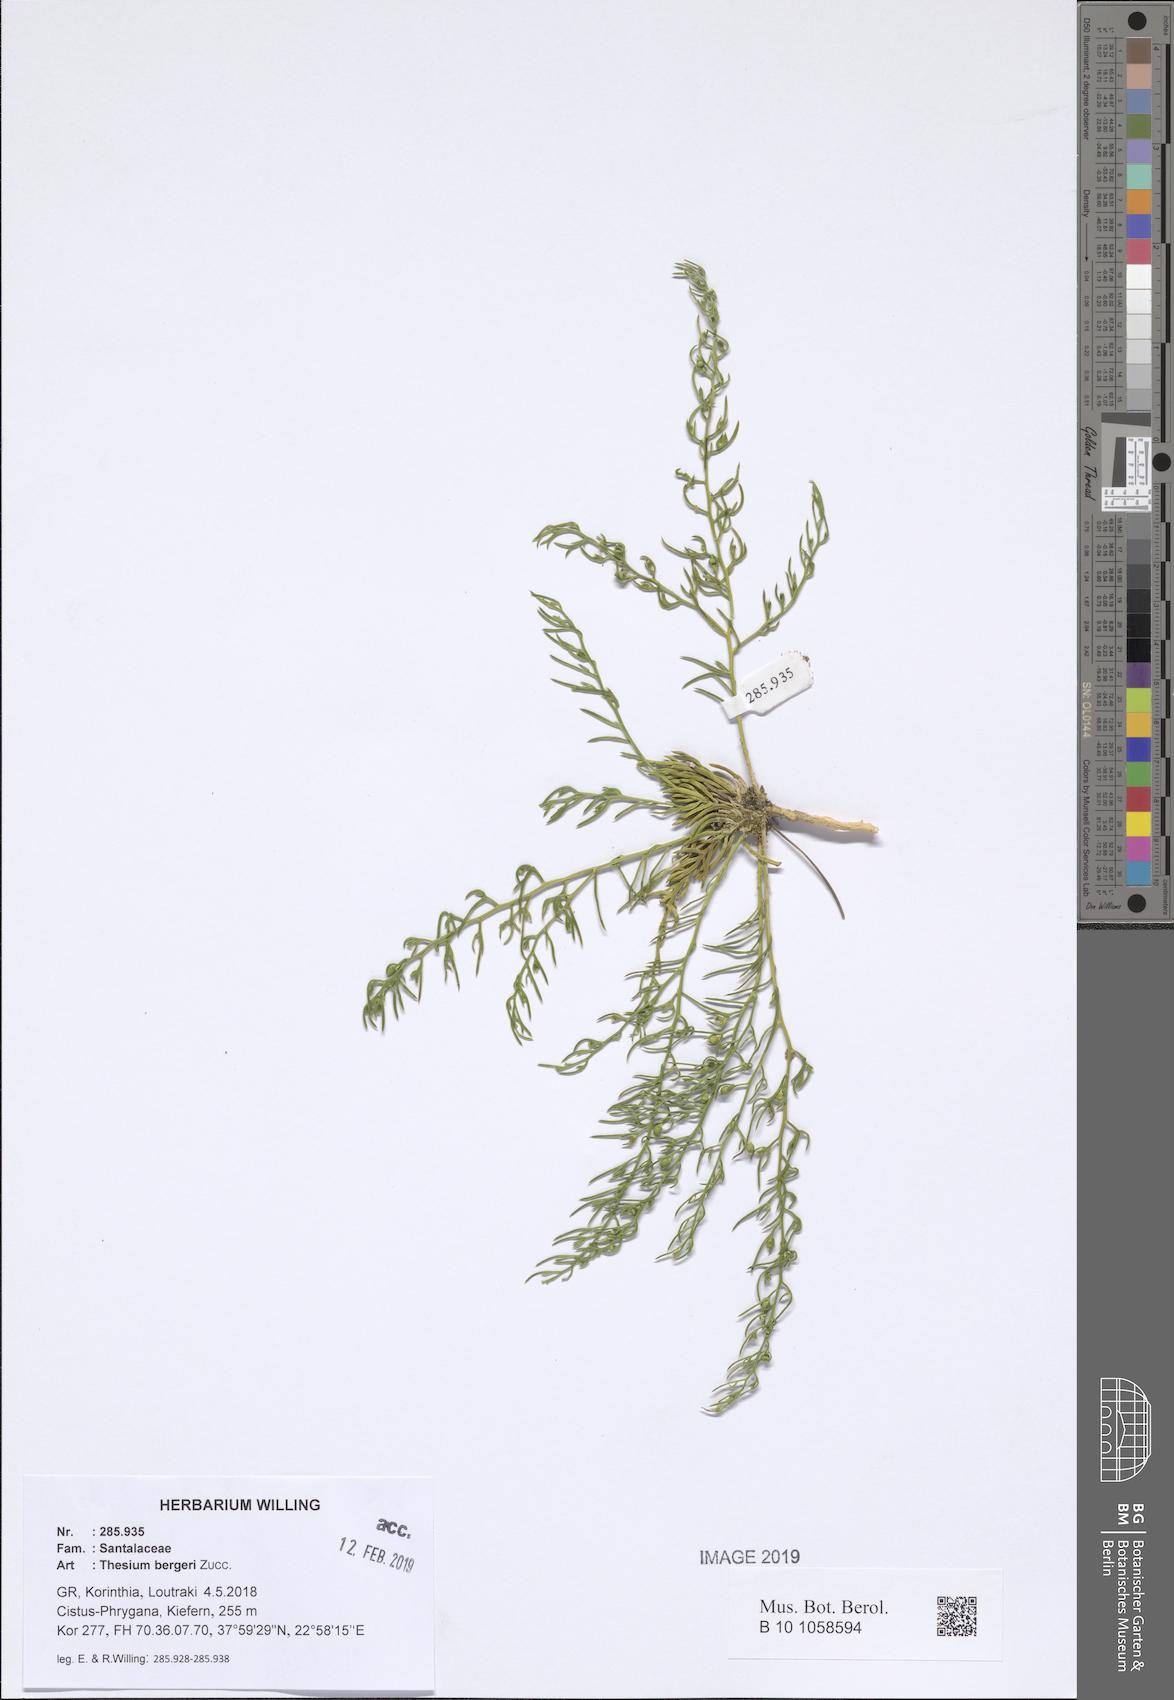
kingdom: Plantae
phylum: Tracheophyta
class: Magnoliopsida
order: Santalales
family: Thesiaceae
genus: Thesium
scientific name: Thesium bergeri
